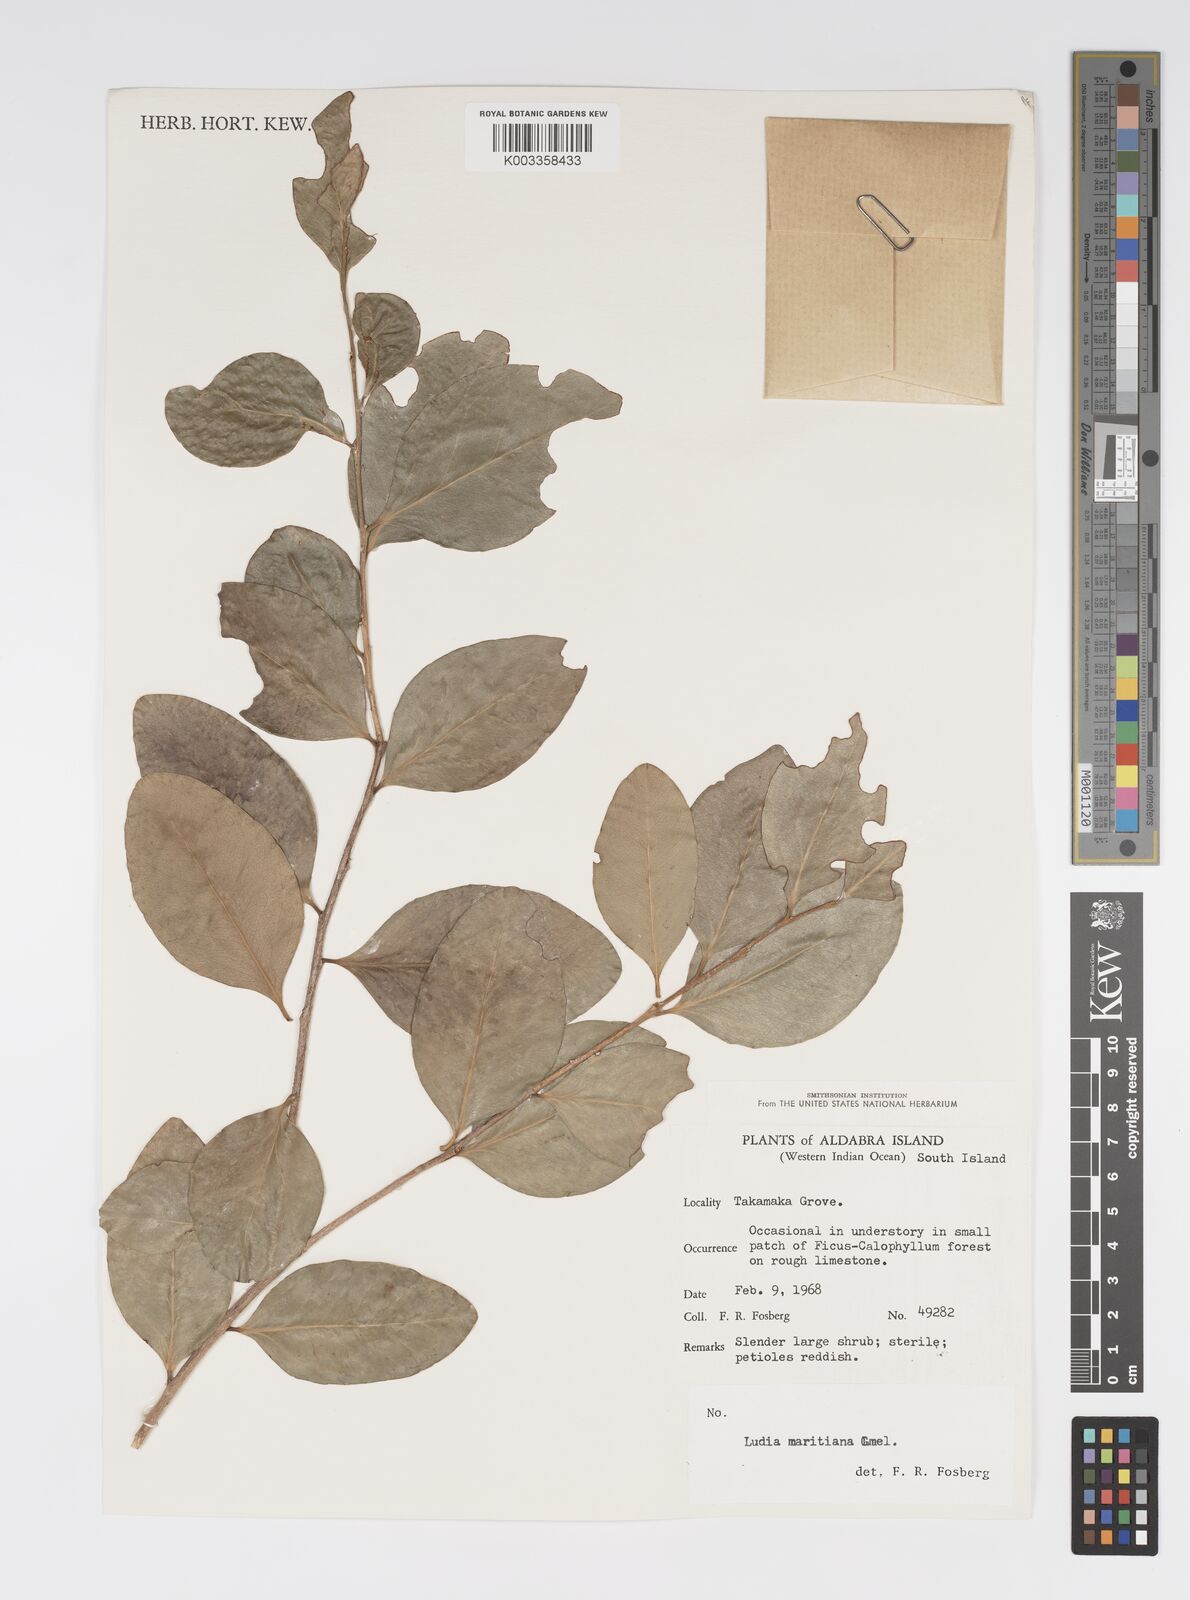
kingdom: Plantae
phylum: Tracheophyta
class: Magnoliopsida
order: Malpighiales
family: Salicaceae
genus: Ludia
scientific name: Ludia mauritiana
